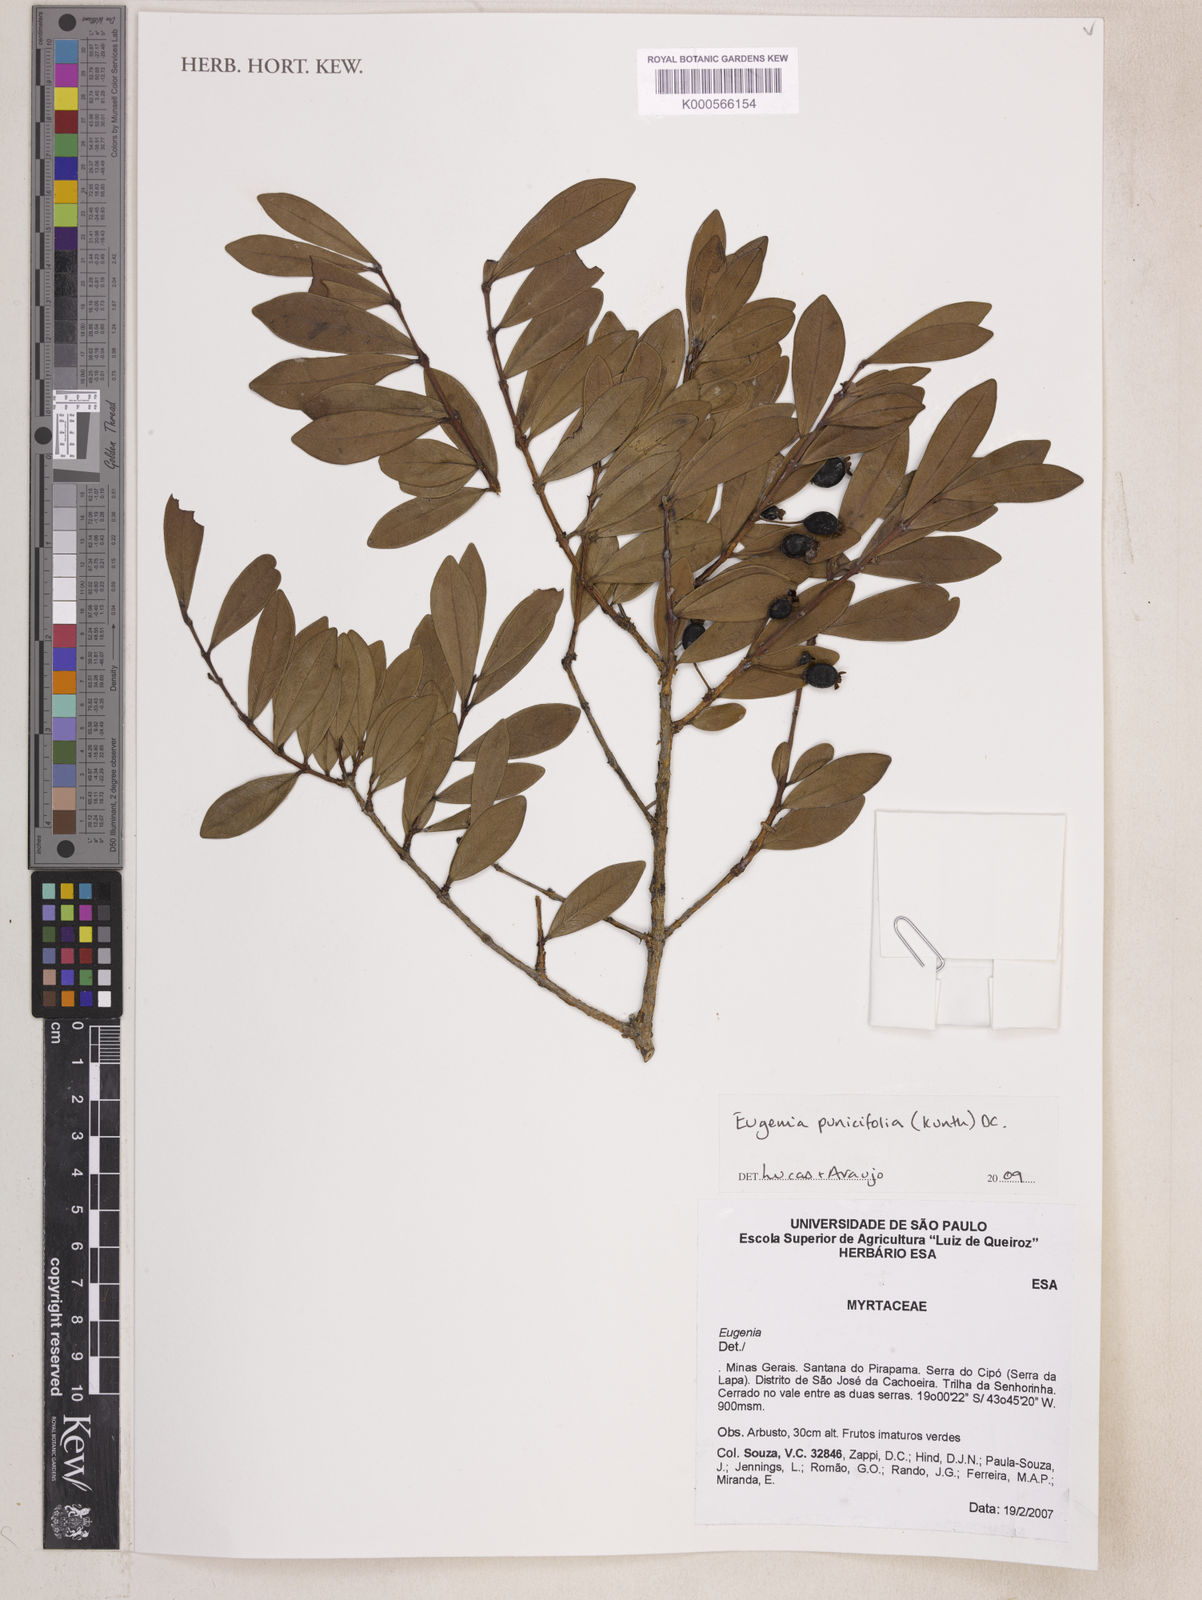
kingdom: Plantae
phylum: Tracheophyta
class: Magnoliopsida
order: Myrtales
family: Myrtaceae
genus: Eugenia
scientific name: Eugenia punicifolia
